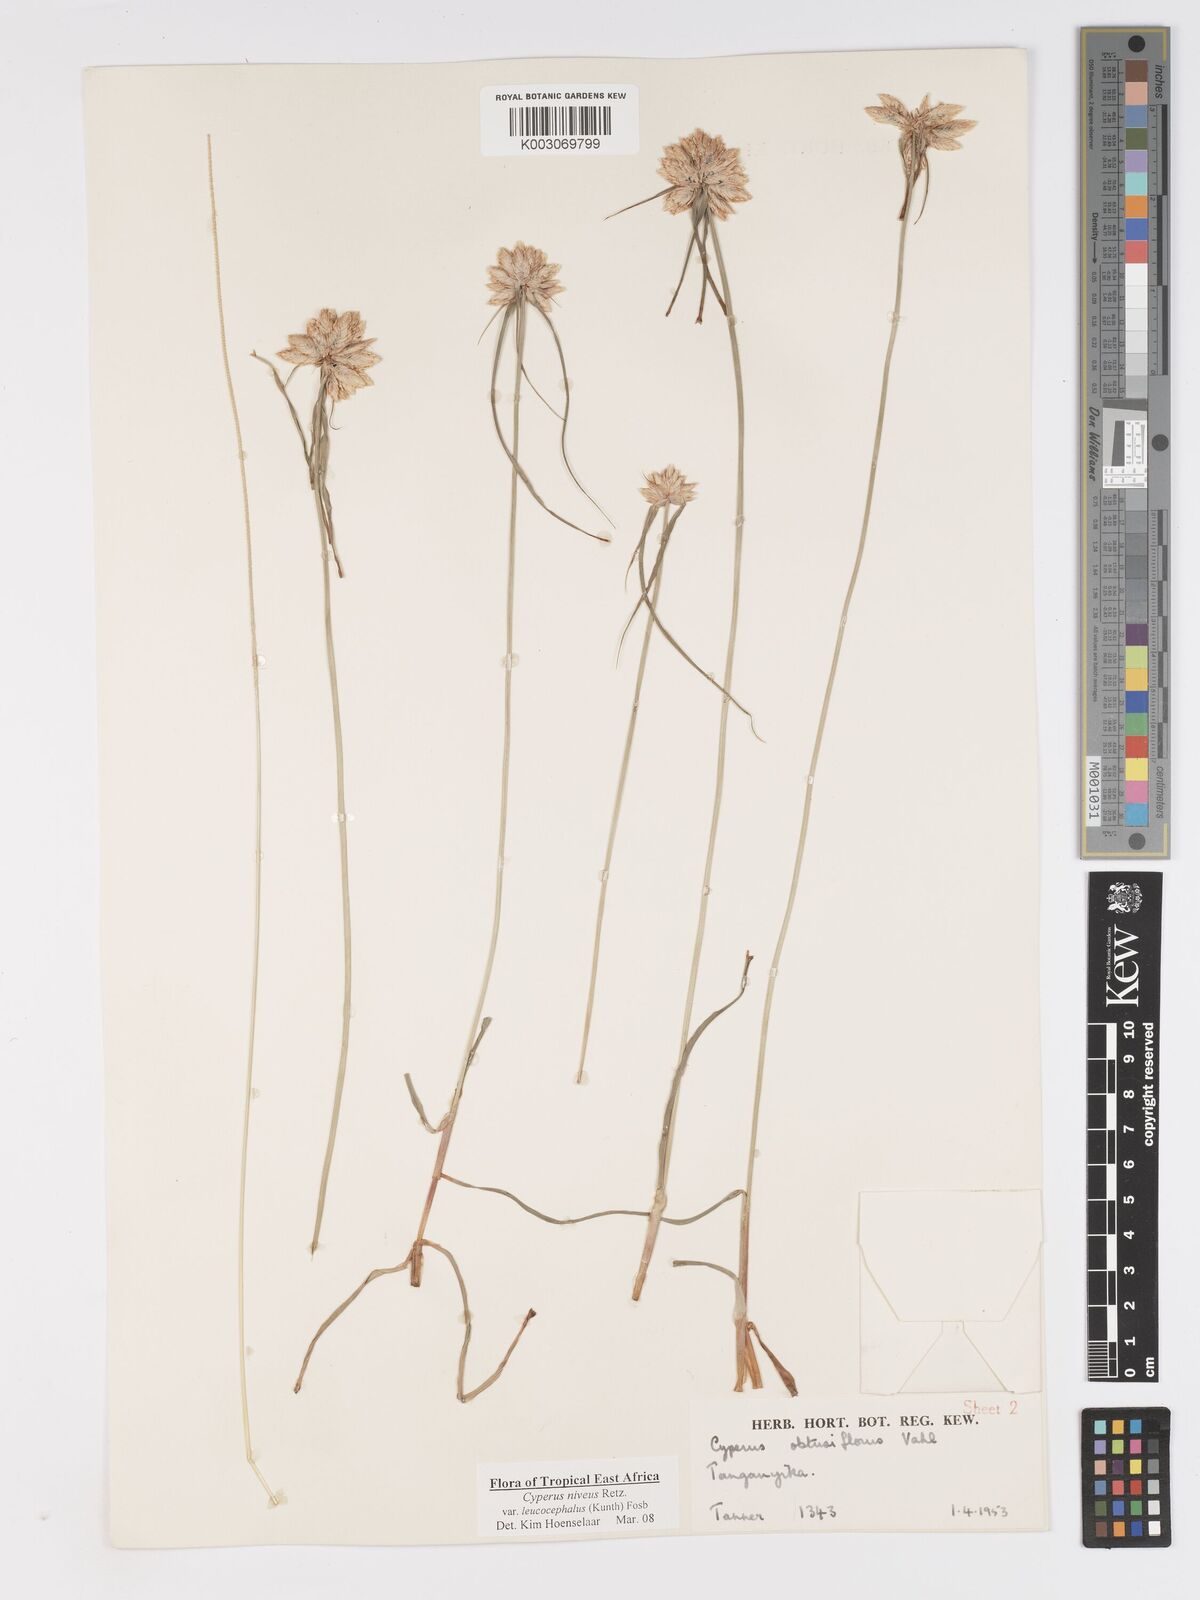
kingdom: Plantae
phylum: Tracheophyta
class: Liliopsida
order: Poales
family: Cyperaceae
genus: Cyperus
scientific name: Cyperus niveus
